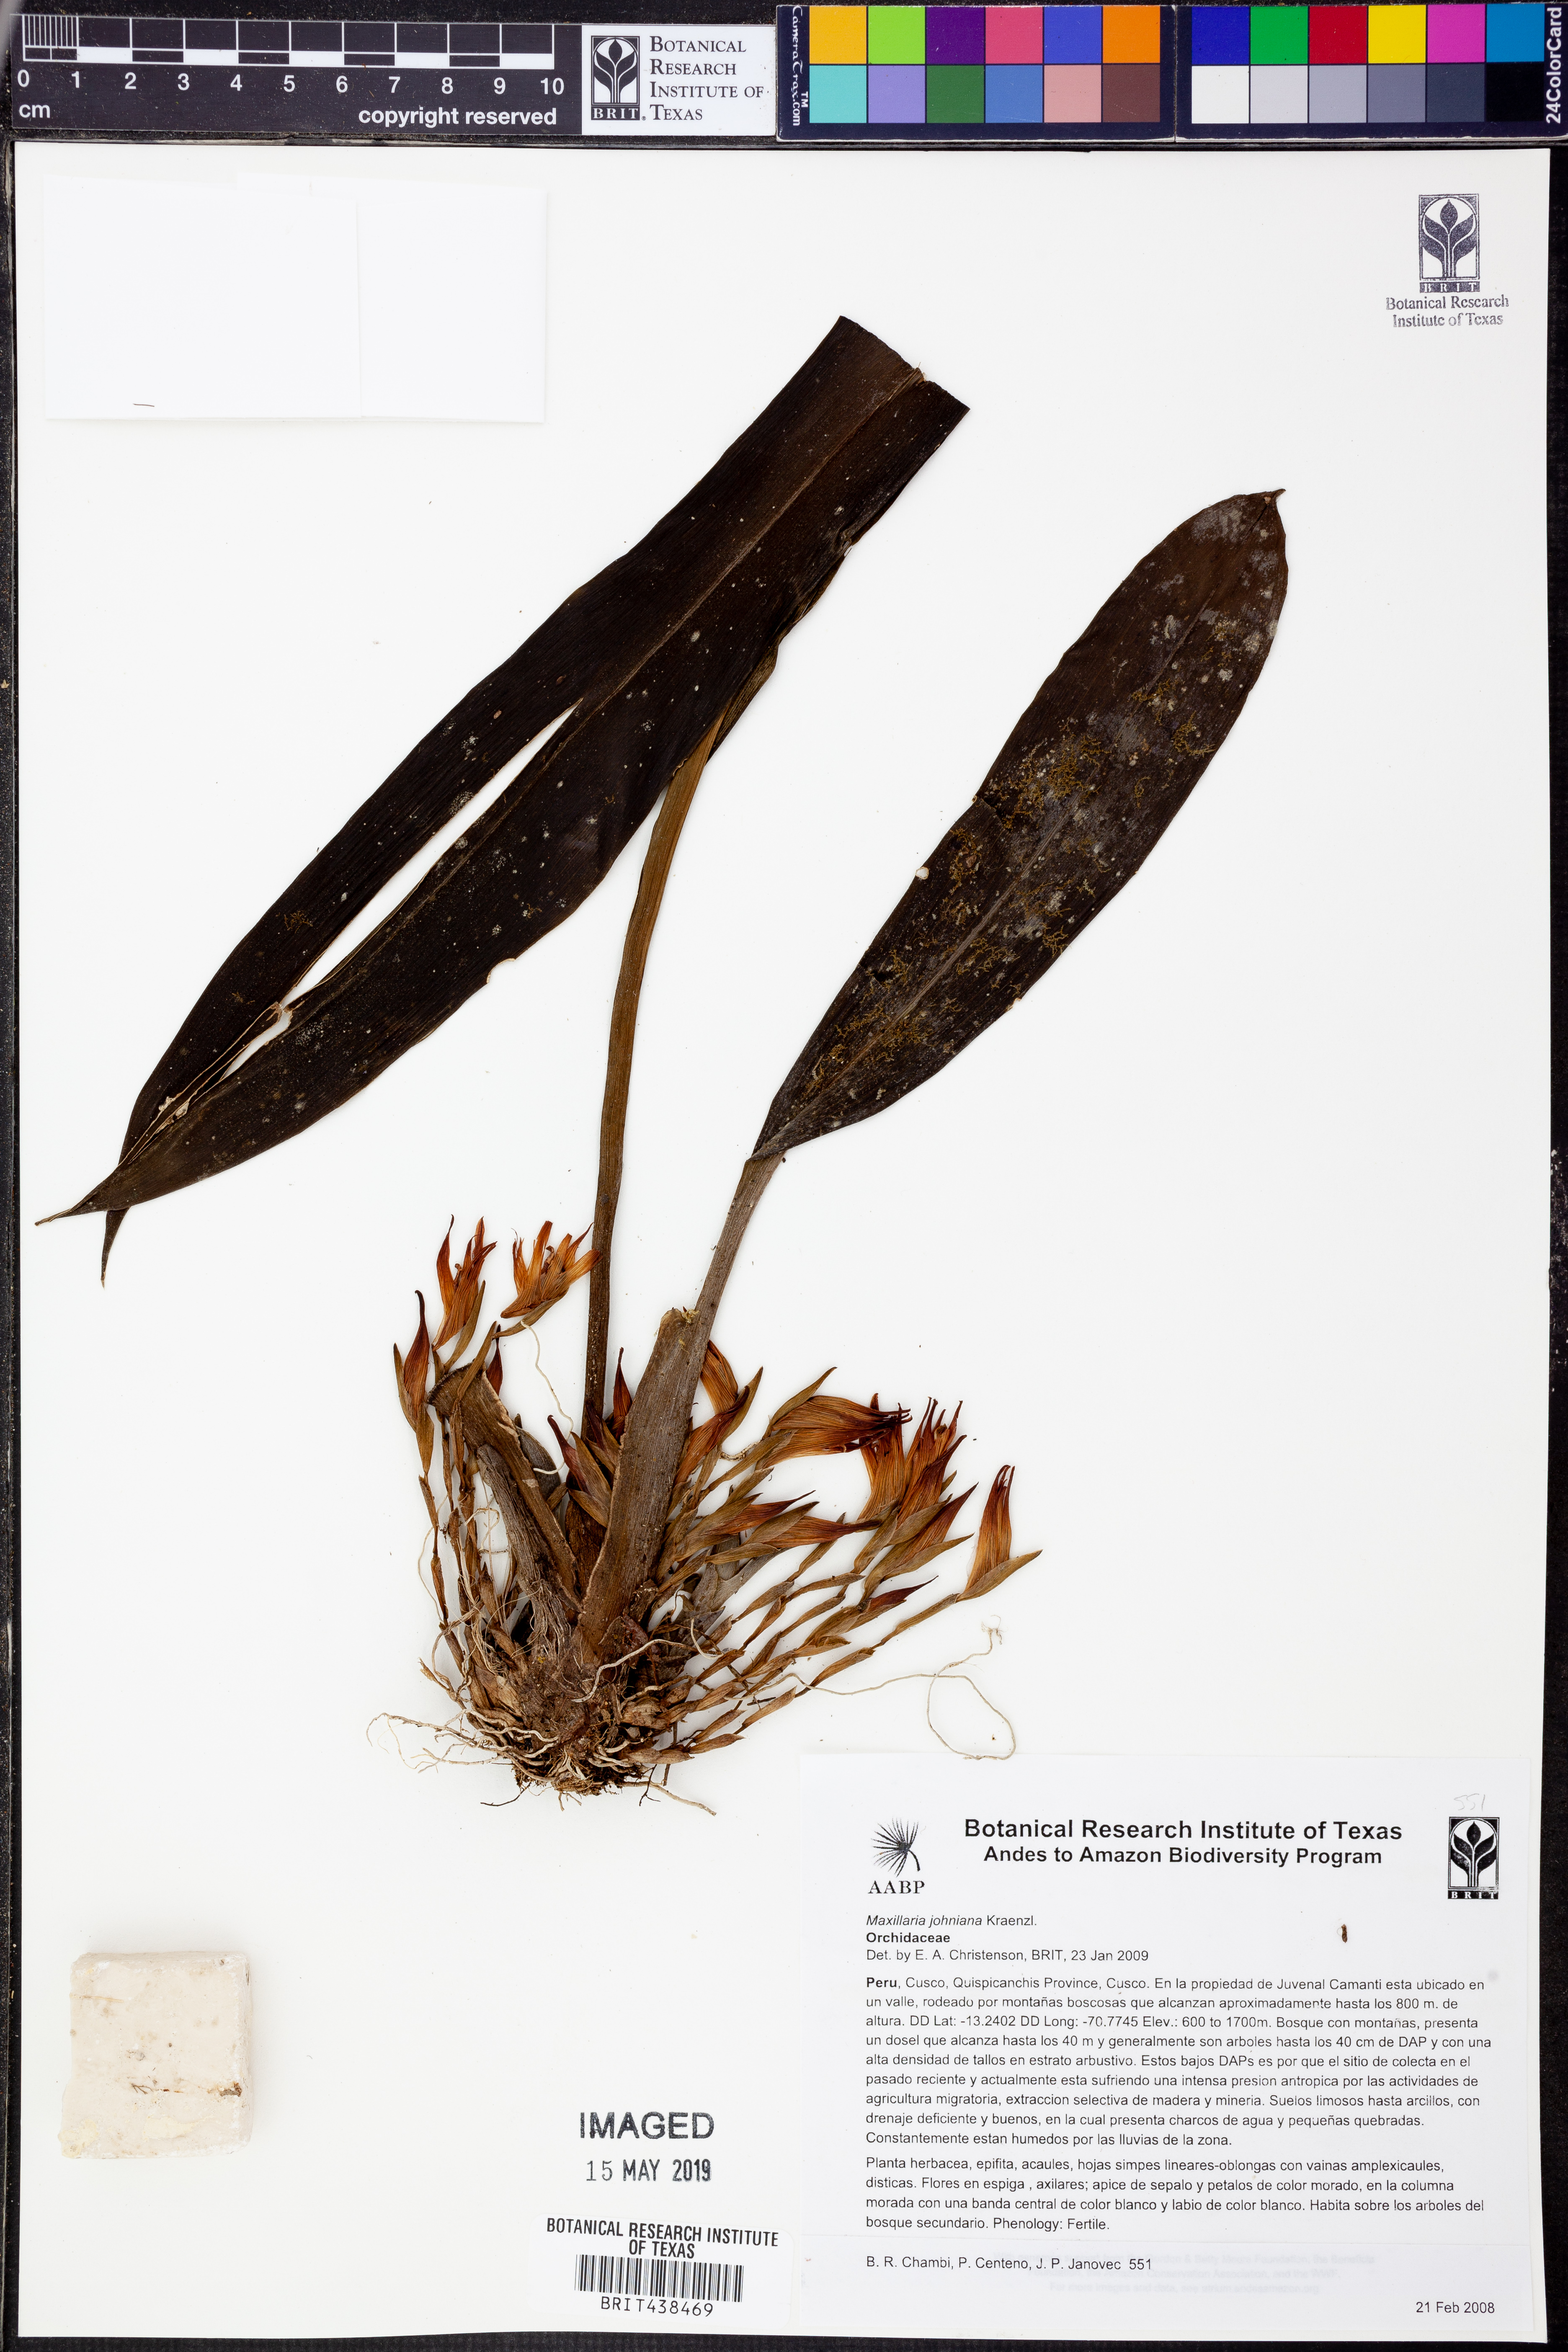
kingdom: Plantae
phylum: Tracheophyta
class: Liliopsida
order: Asparagales
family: Orchidaceae
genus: Maxillaria
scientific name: Maxillaria johniana
